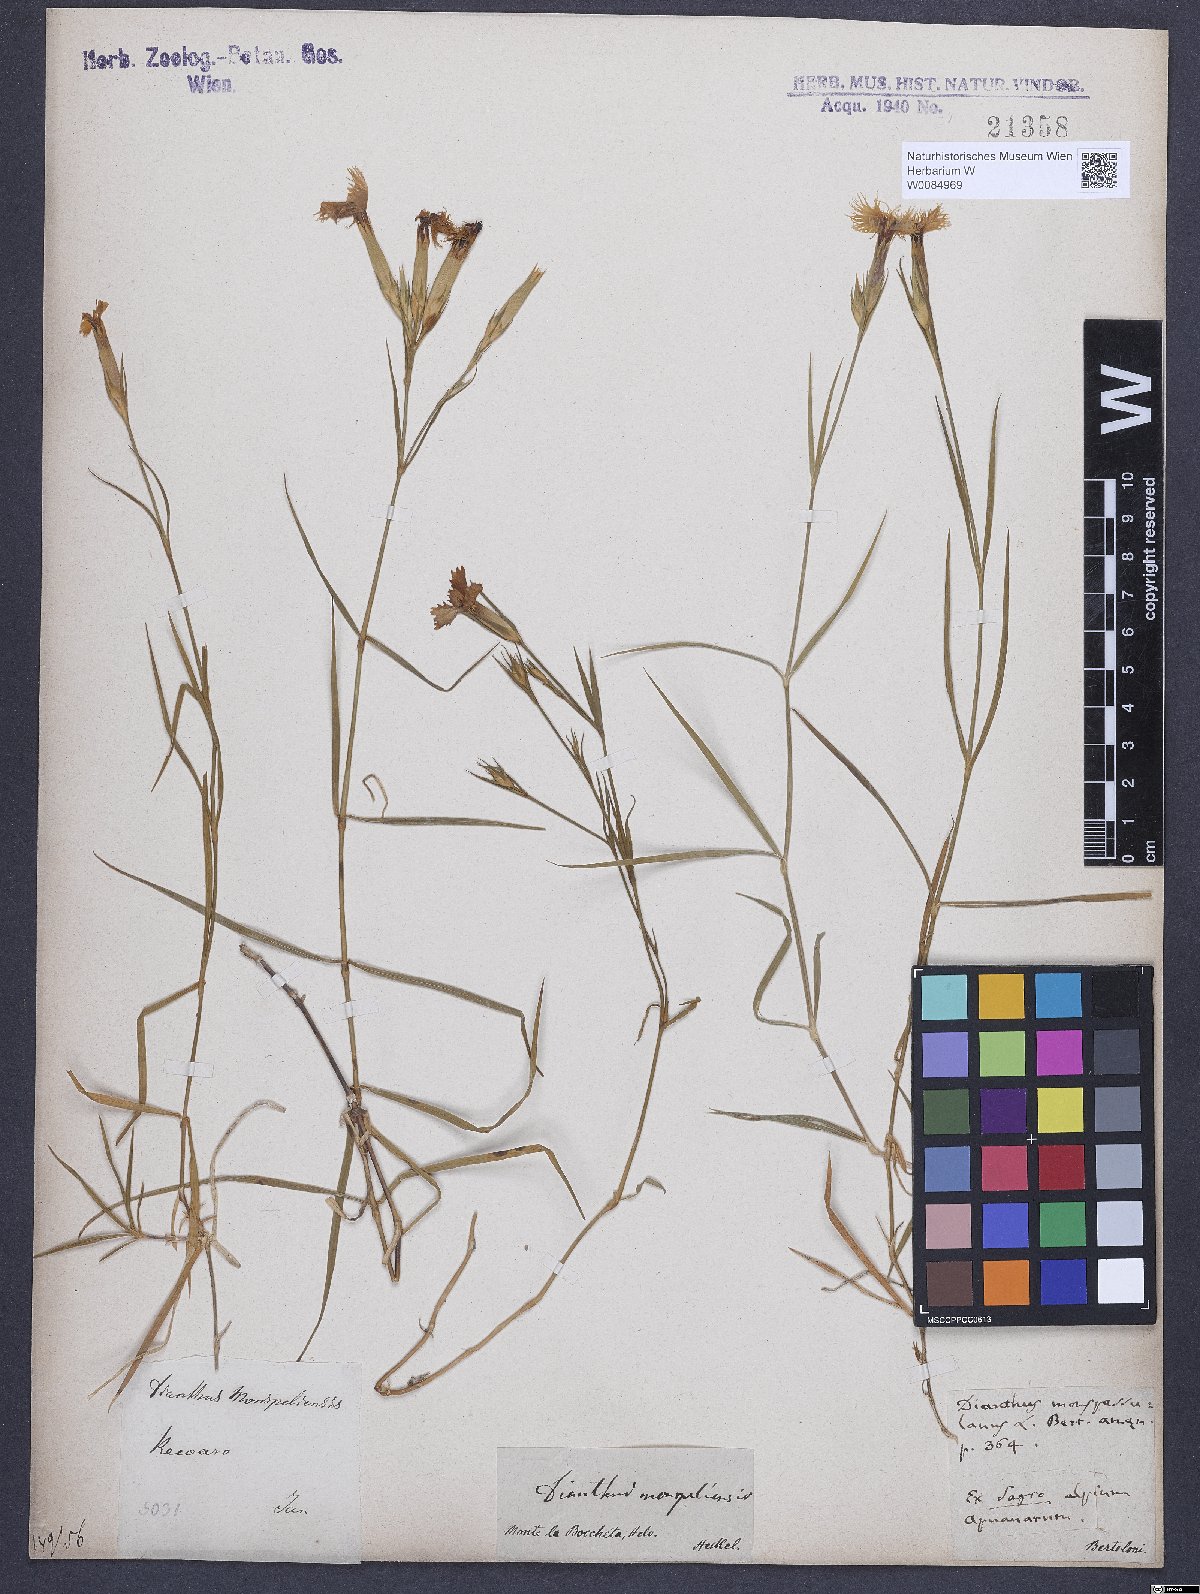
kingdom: Plantae
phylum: Tracheophyta
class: Magnoliopsida
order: Caryophyllales
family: Caryophyllaceae
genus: Dianthus
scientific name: Dianthus hyssopifolius
